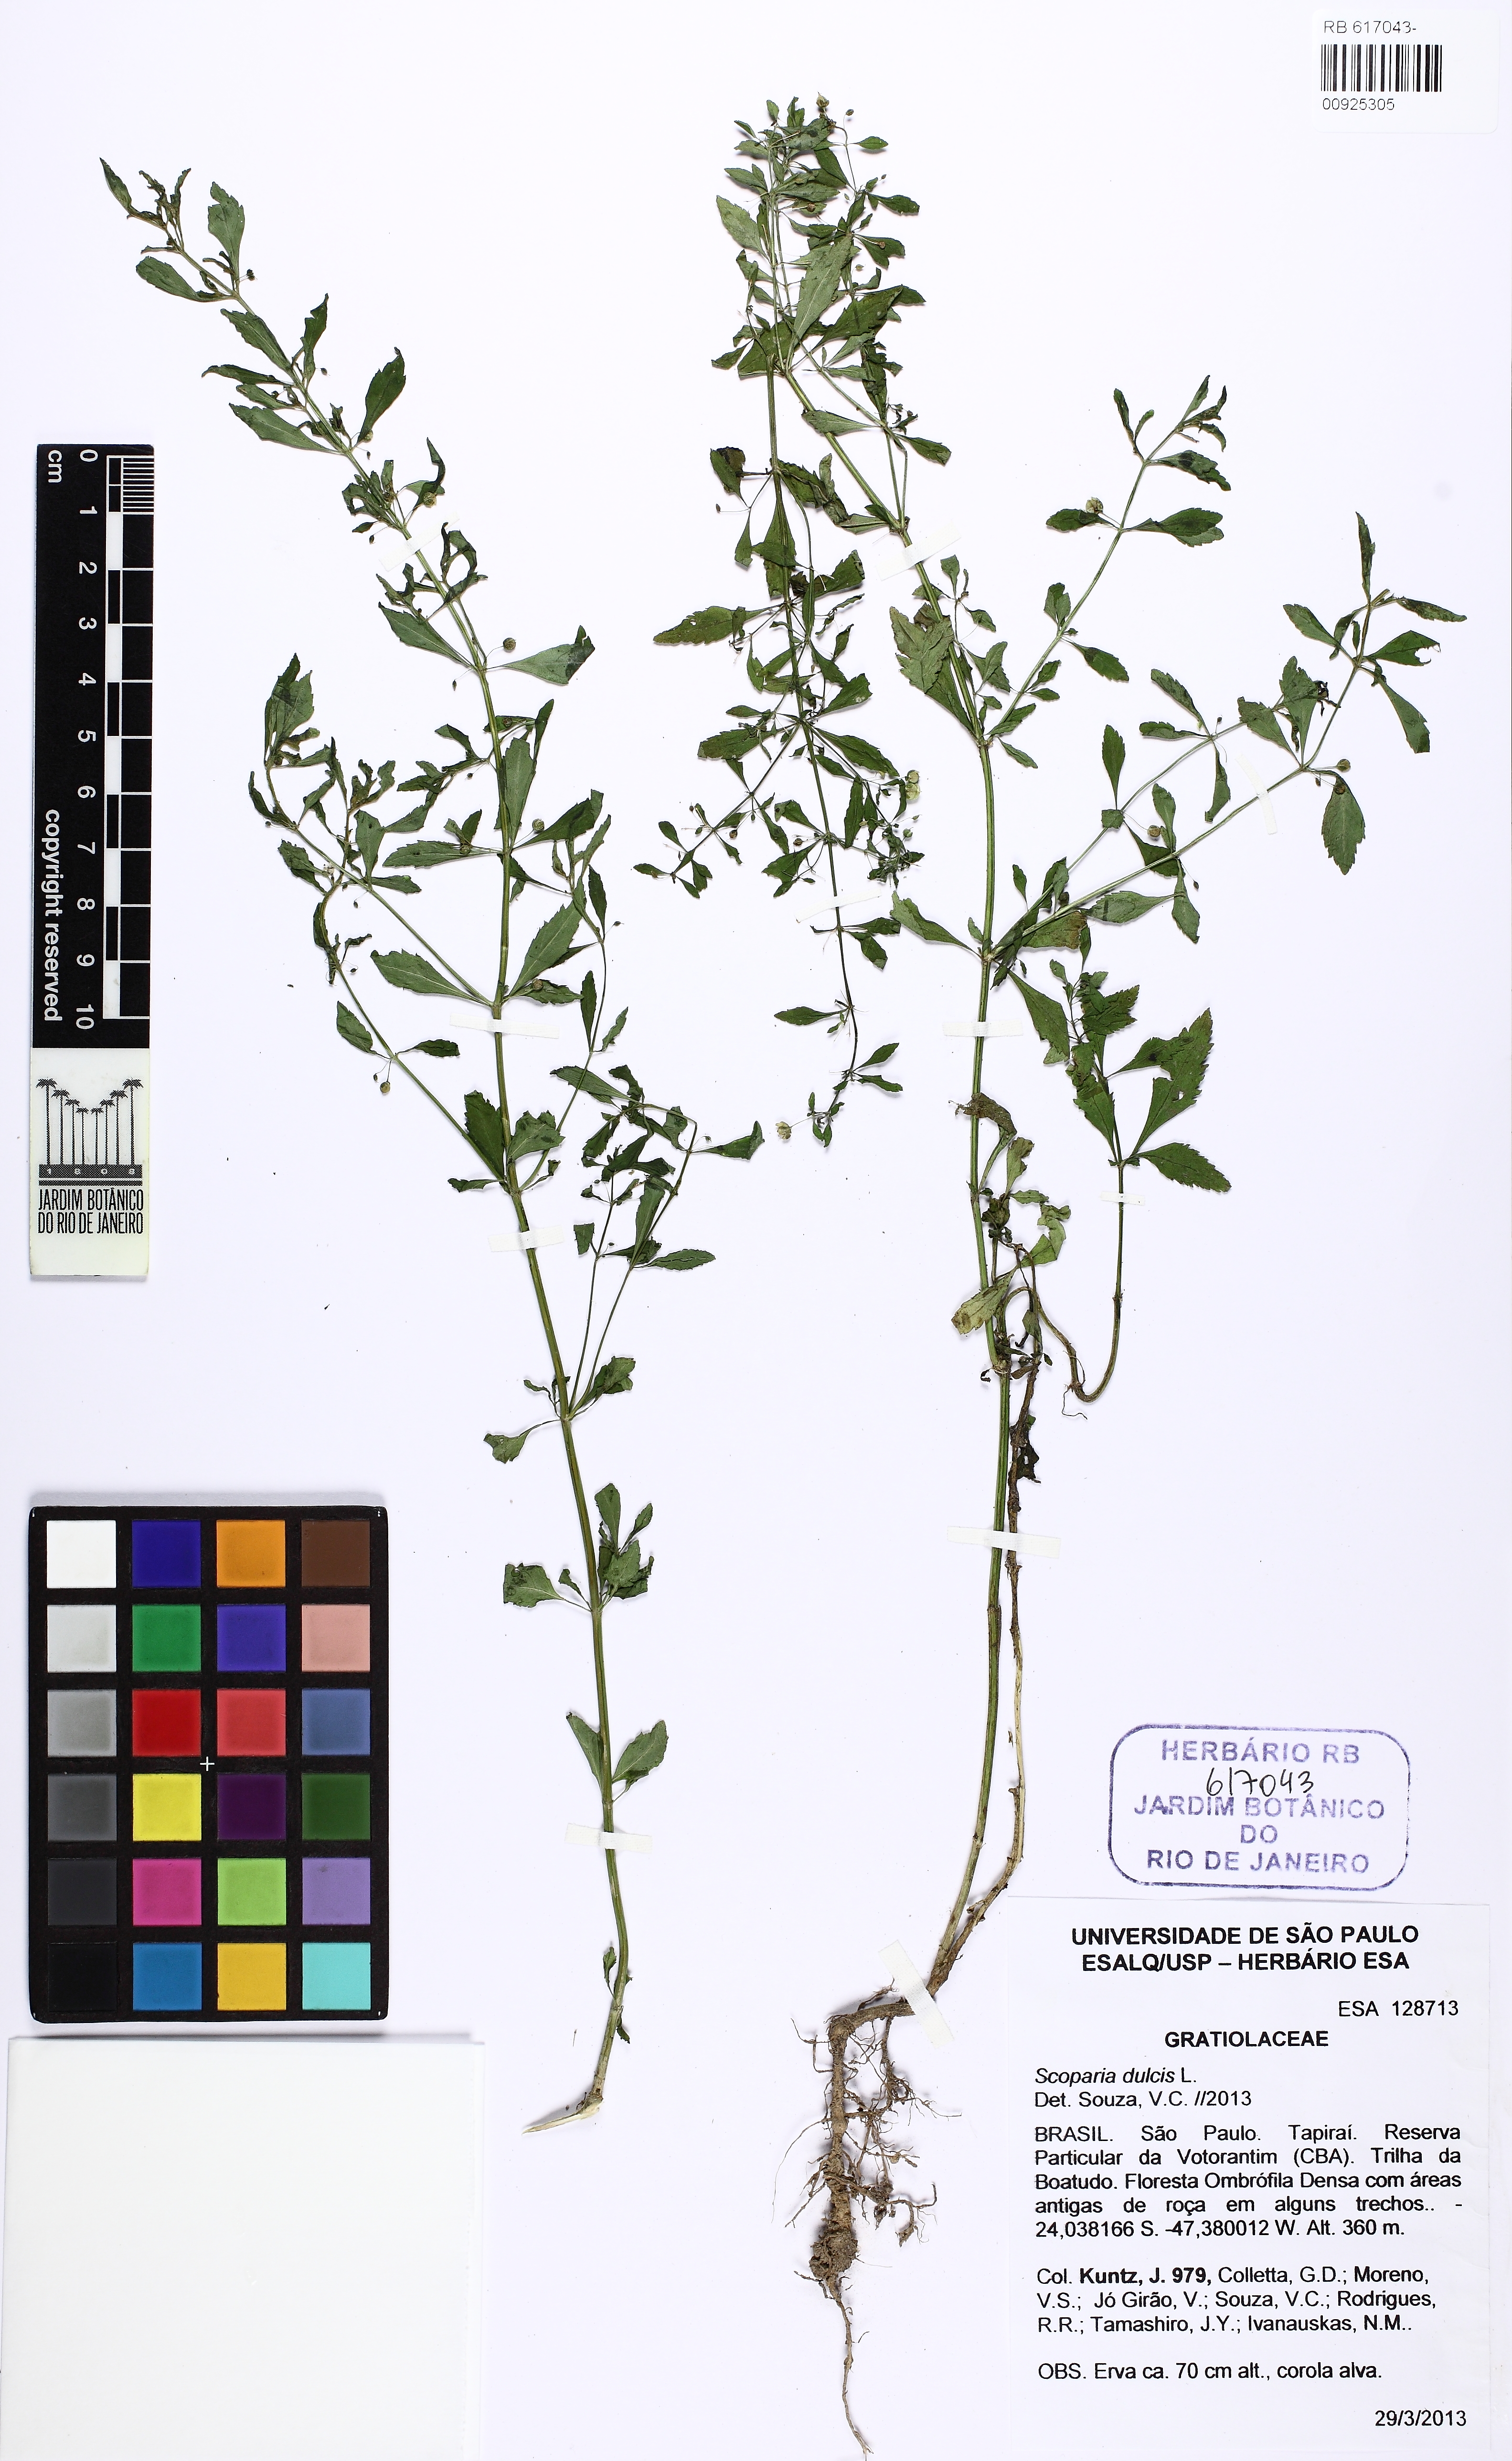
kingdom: Plantae
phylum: Tracheophyta
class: Magnoliopsida
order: Lamiales
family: Plantaginaceae
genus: Scoparia
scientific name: Scoparia dulcis
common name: Scoparia-weed
